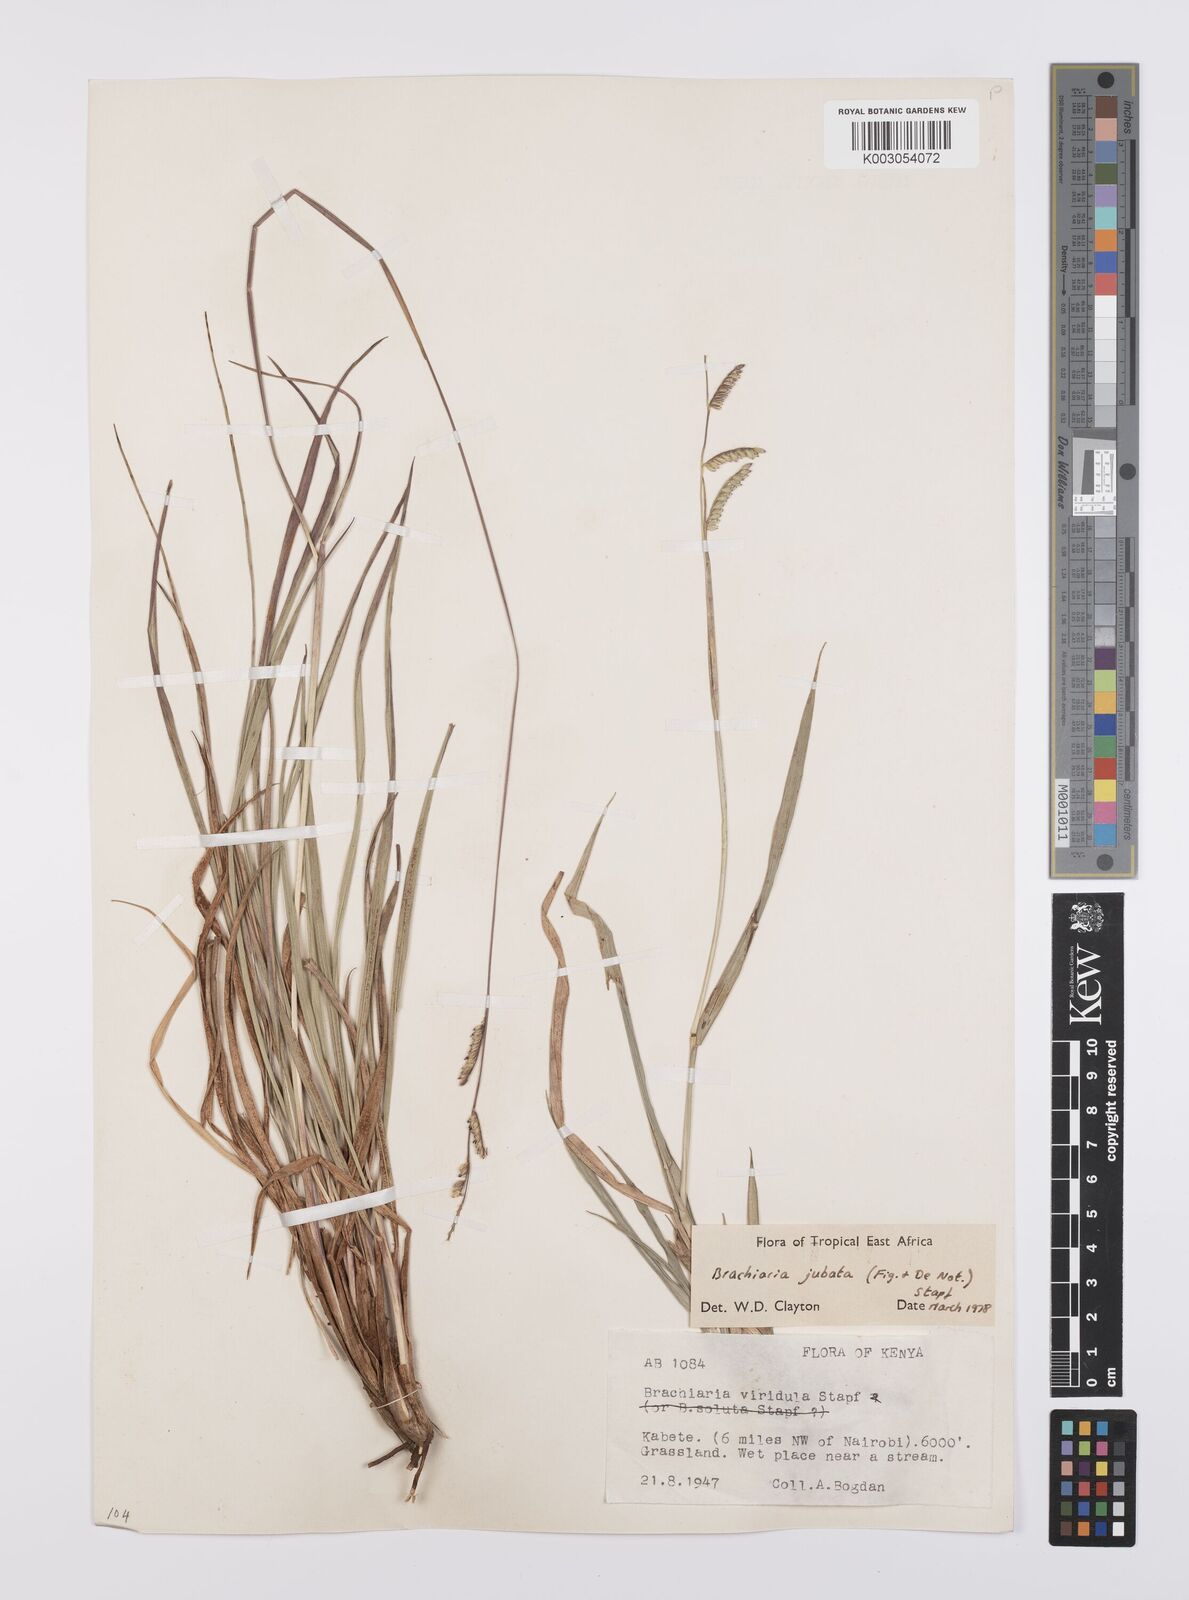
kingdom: Plantae
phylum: Tracheophyta
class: Liliopsida
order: Poales
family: Poaceae
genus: Urochloa
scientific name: Urochloa jubata
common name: Buffalograss
